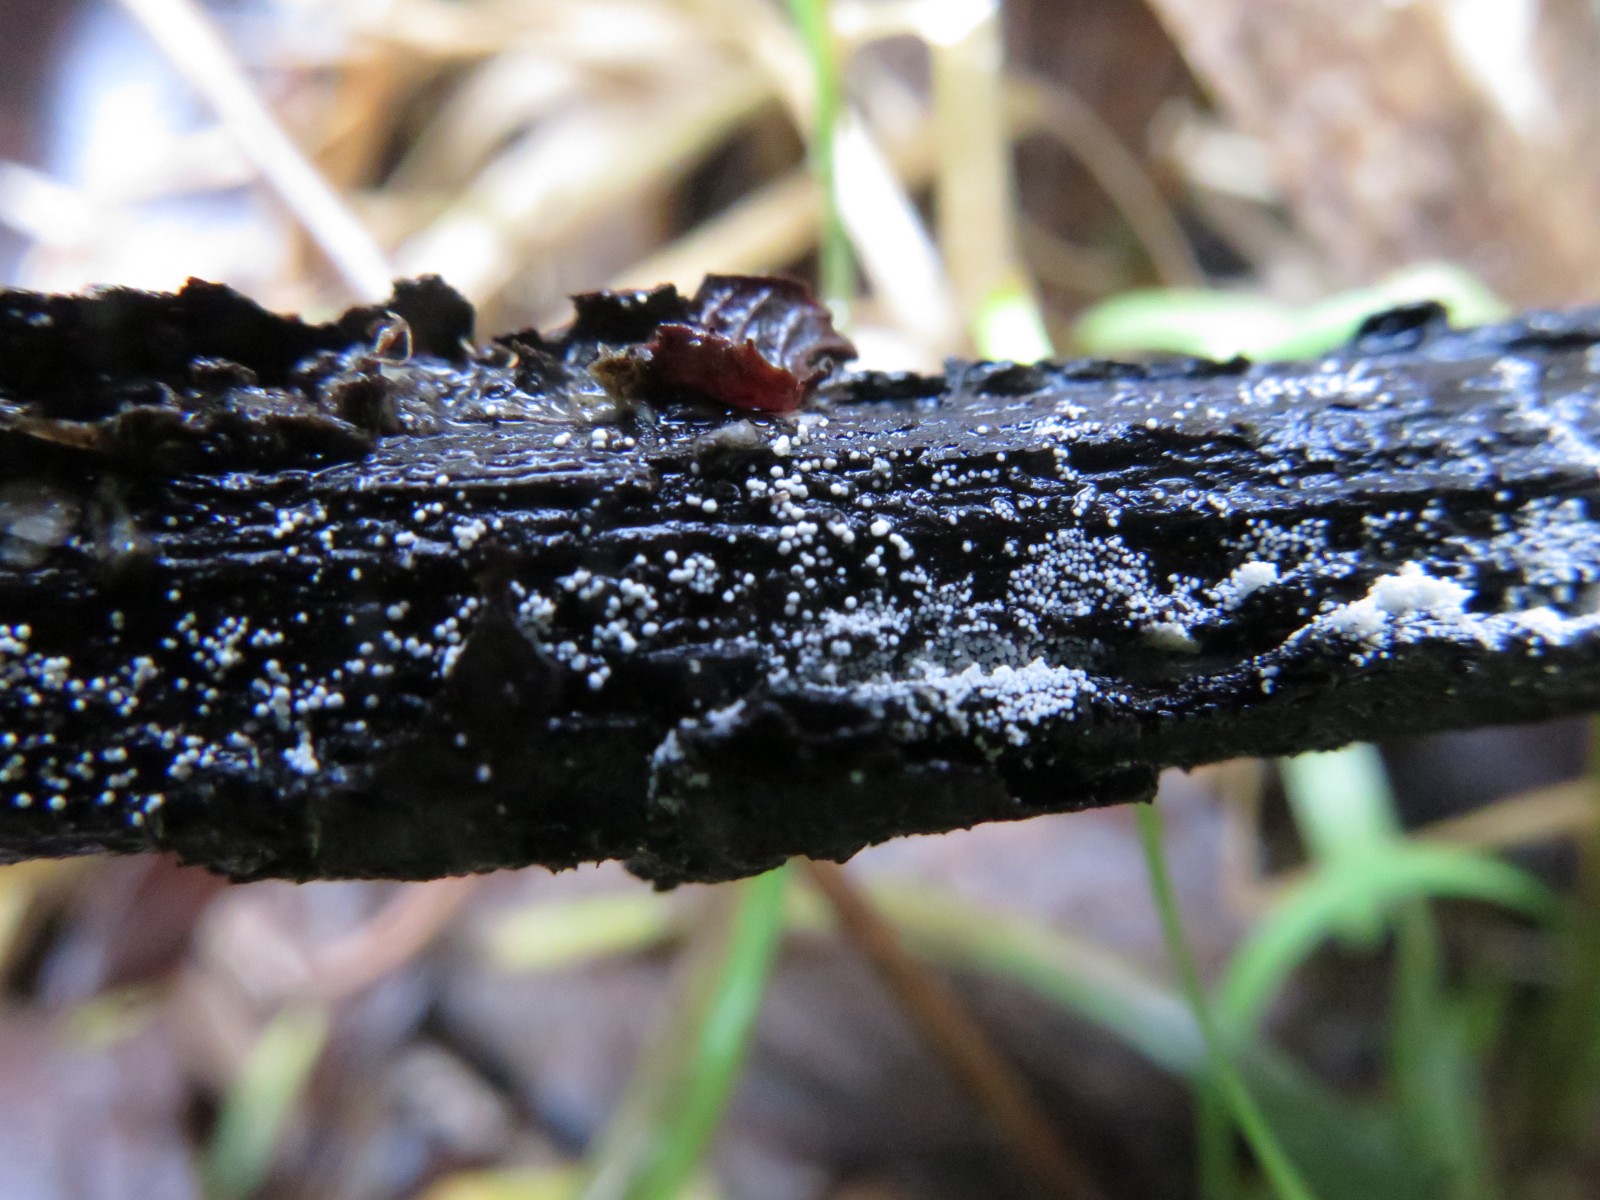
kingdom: Fungi
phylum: Basidiomycota
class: Agaricomycetes
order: Polyporales
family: Meruliaceae
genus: Bulbillomyces
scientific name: Bulbillomyces farinosus
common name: æg-kalkskind
